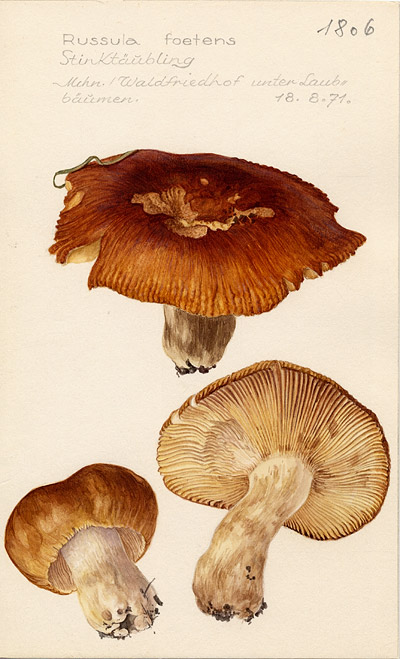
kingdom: Fungi
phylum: Basidiomycota
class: Agaricomycetes
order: Russulales
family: Russulaceae
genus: Russula
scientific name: Russula foetens
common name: Foetid russula
